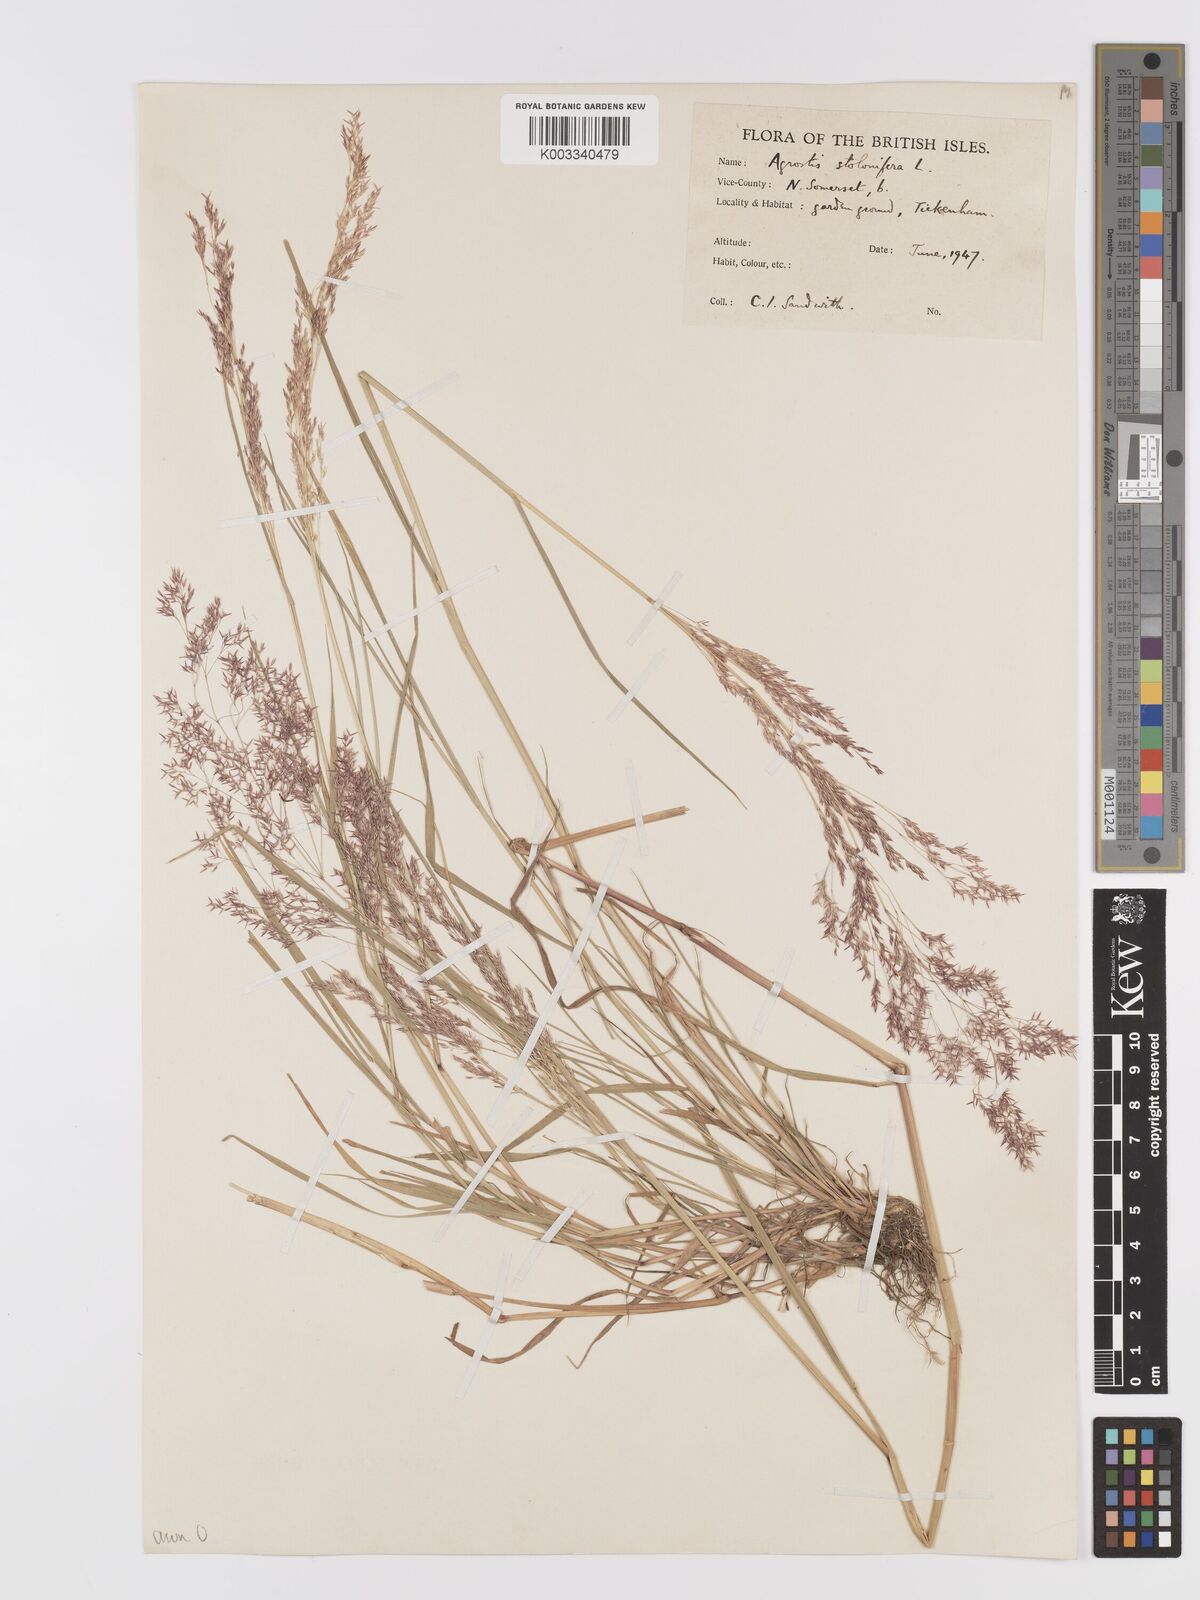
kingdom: Plantae
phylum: Tracheophyta
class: Liliopsida
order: Poales
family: Poaceae
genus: Agrostis
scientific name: Agrostis capillaris
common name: Colonial bentgrass
